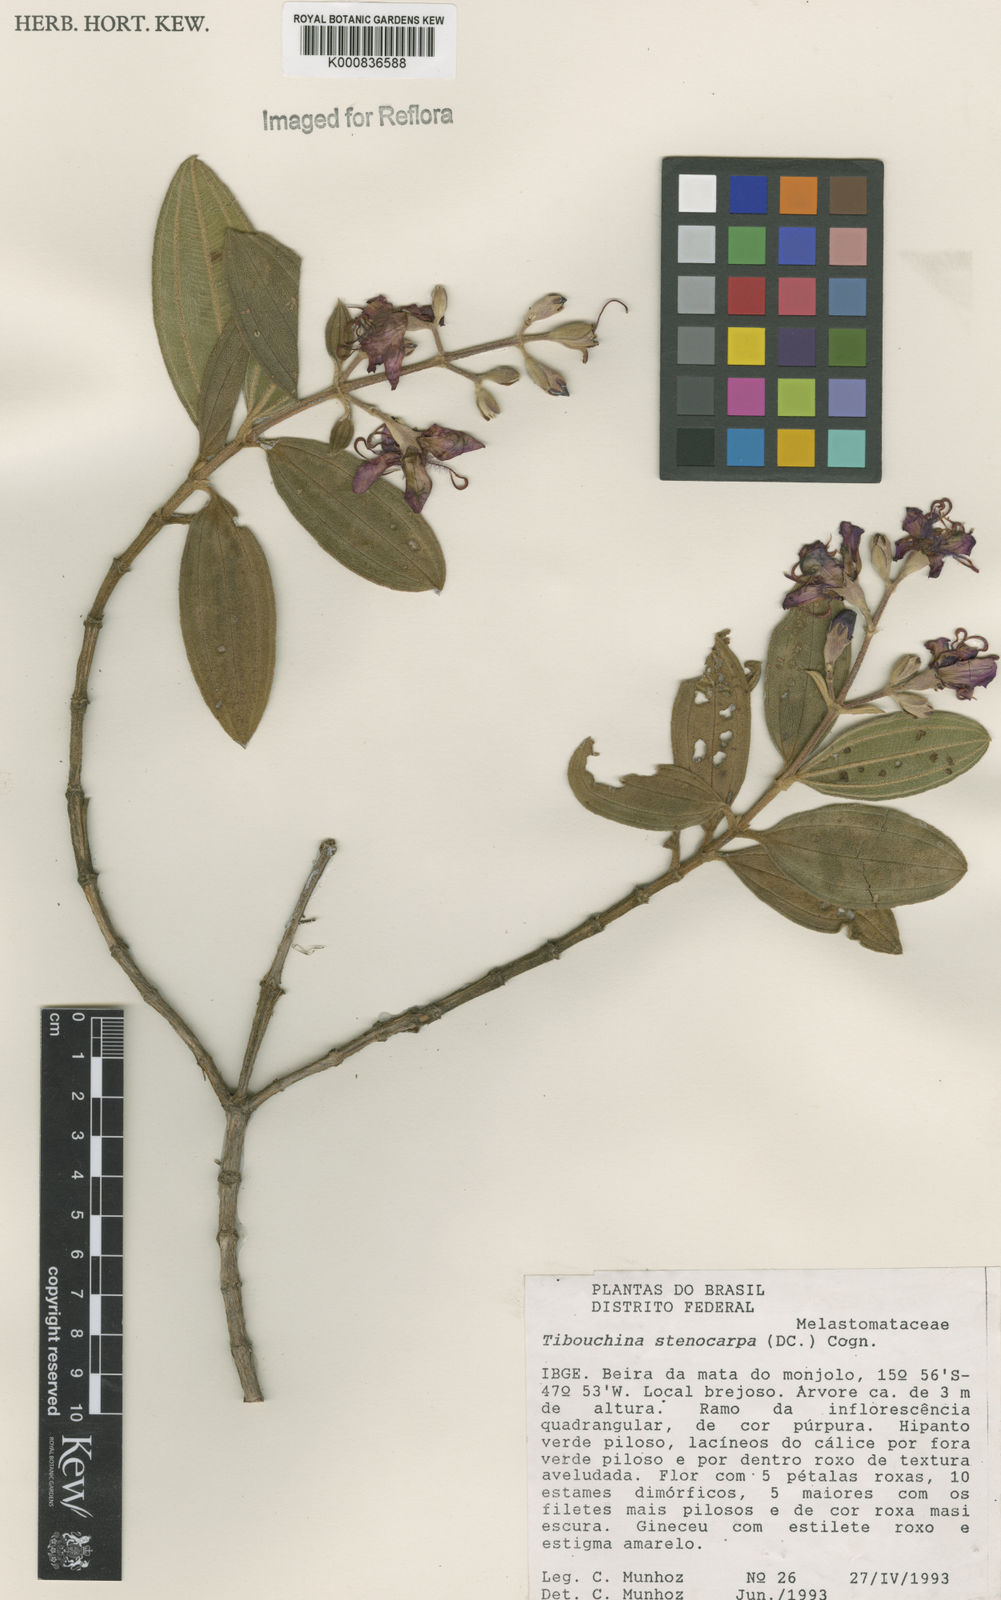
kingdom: Plantae
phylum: Tracheophyta
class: Magnoliopsida
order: Myrtales
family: Melastomataceae
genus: Pleroma
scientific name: Pleroma stenocarpum
